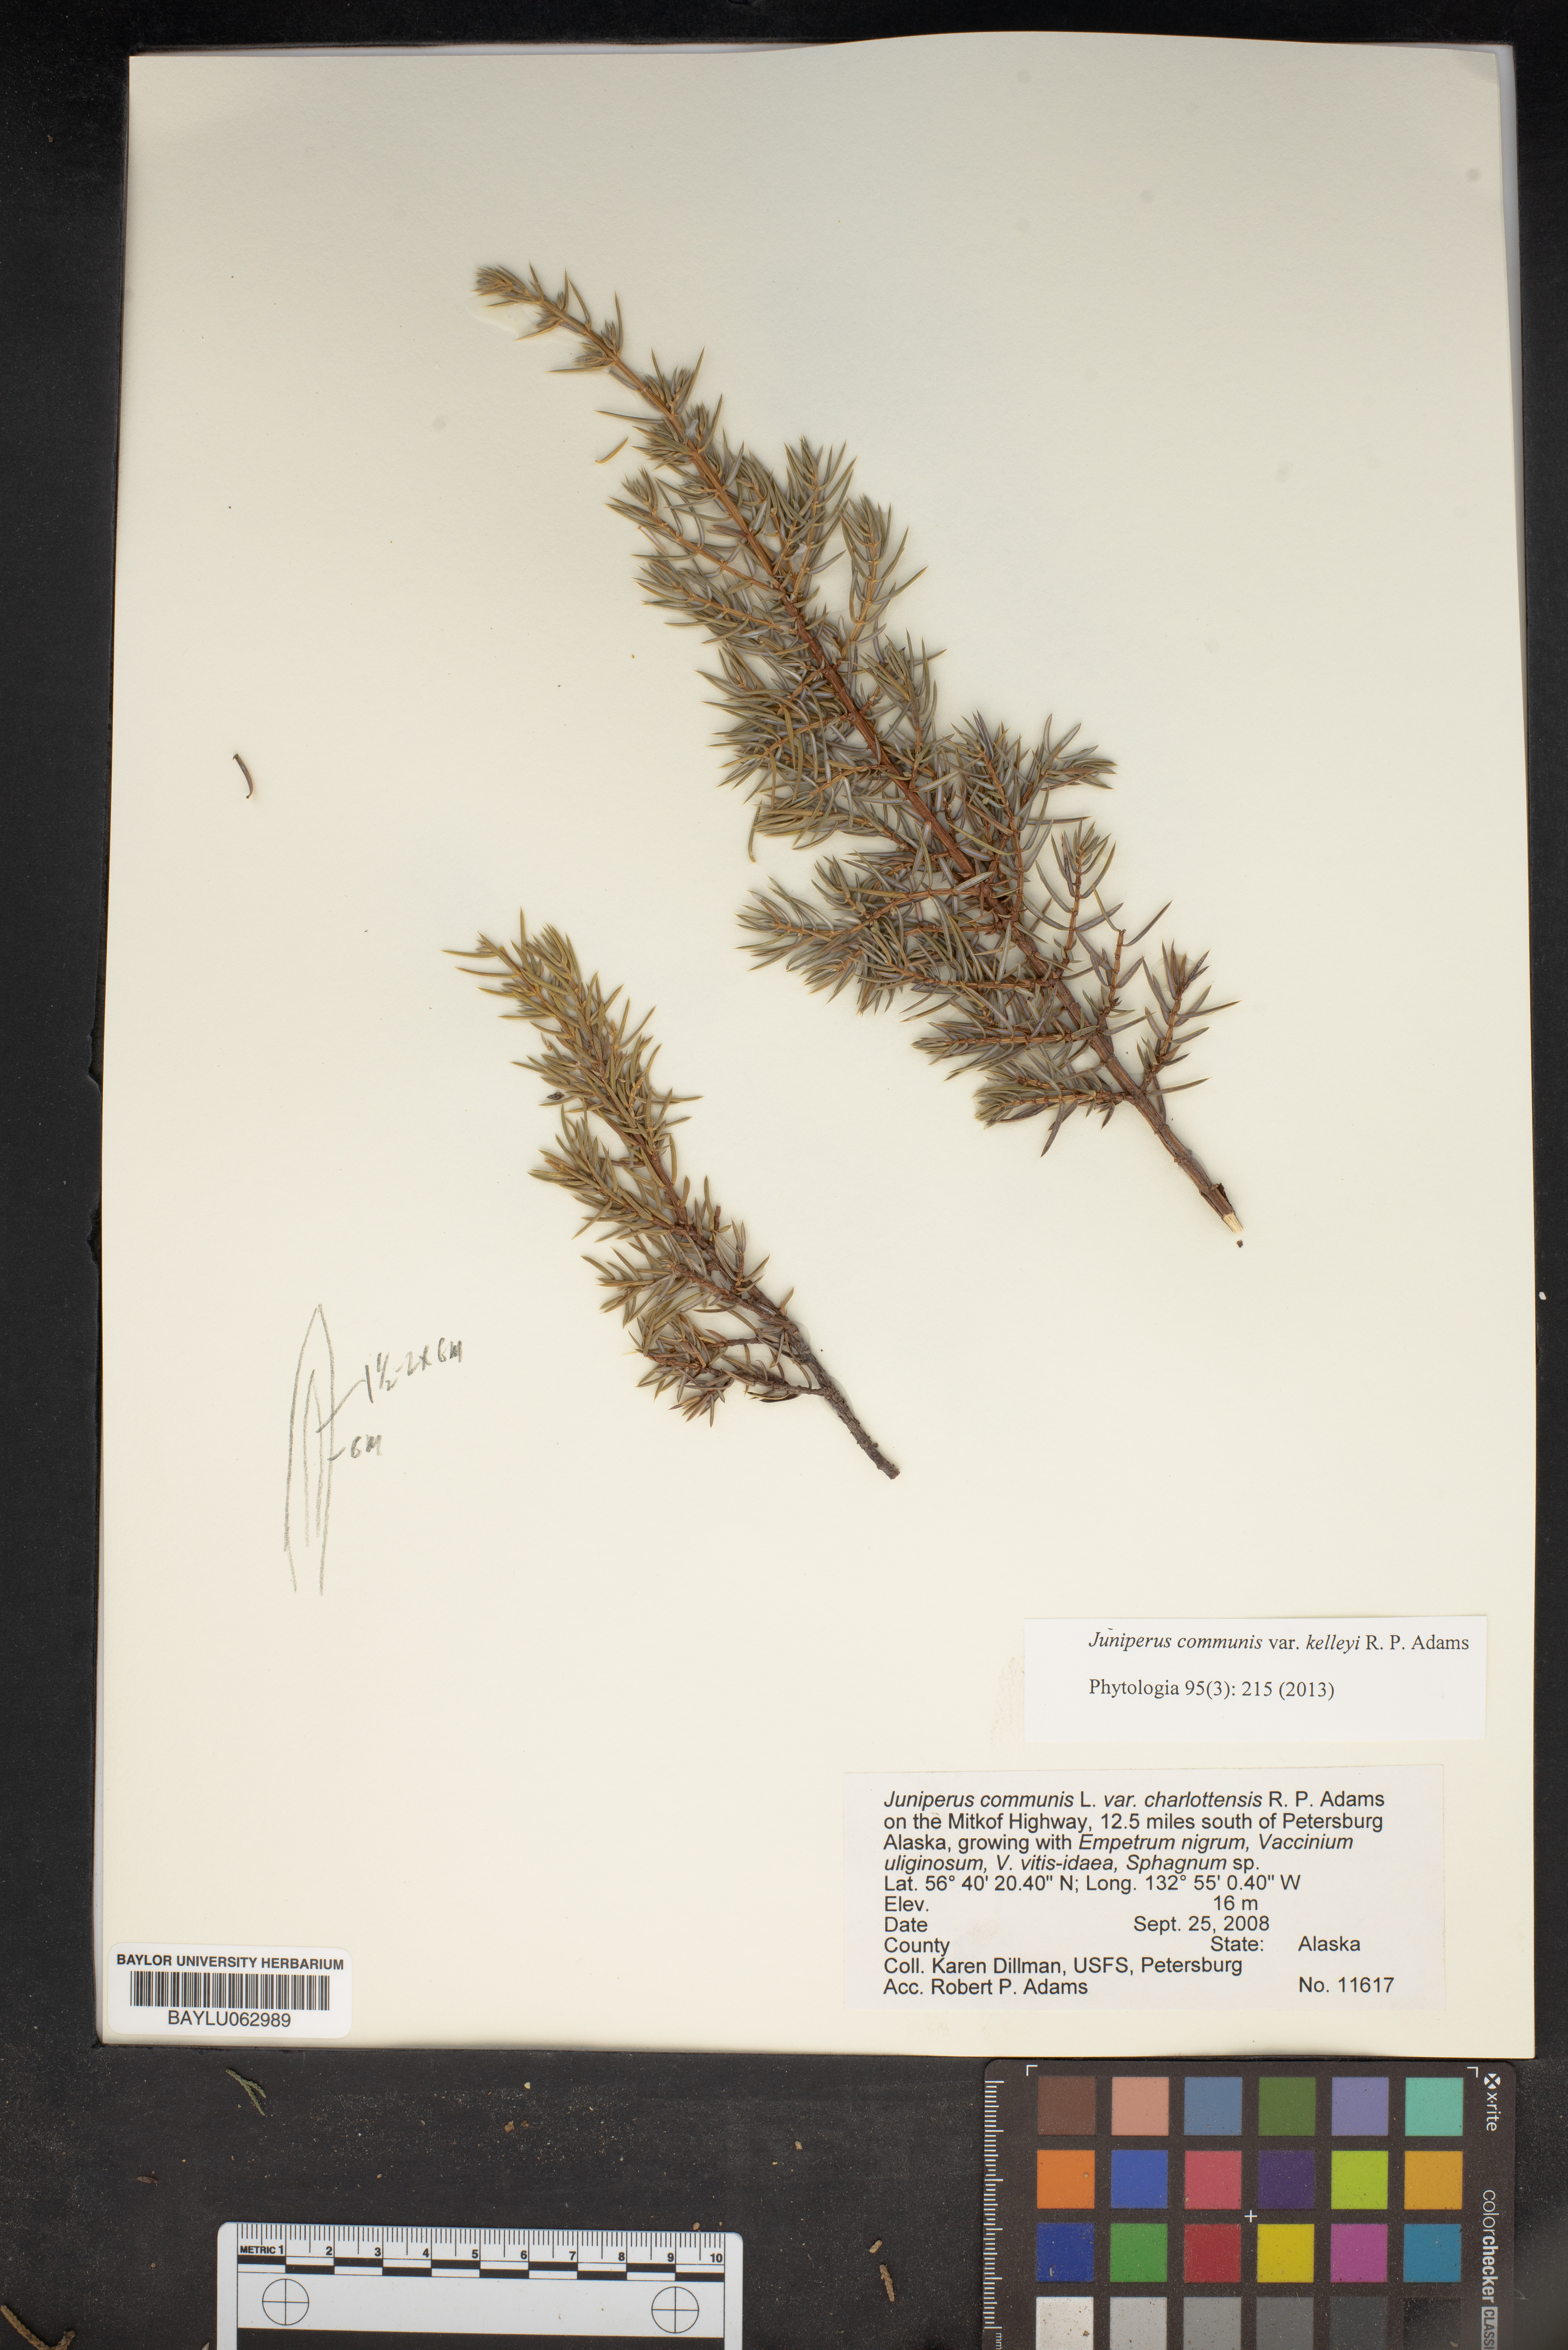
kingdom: Plantae
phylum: Tracheophyta
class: Pinopsida
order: Pinales
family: Cupressaceae
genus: Juniperus
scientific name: Juniperus communis
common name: Common juniper
